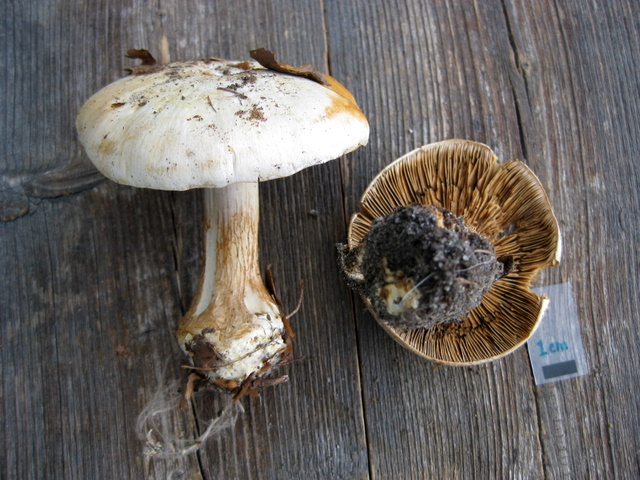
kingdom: Fungi
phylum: Basidiomycota
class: Agaricomycetes
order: Agaricales
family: Cortinariaceae
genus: Cortinarius
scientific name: Cortinarius foetens
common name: stribet slørhat
